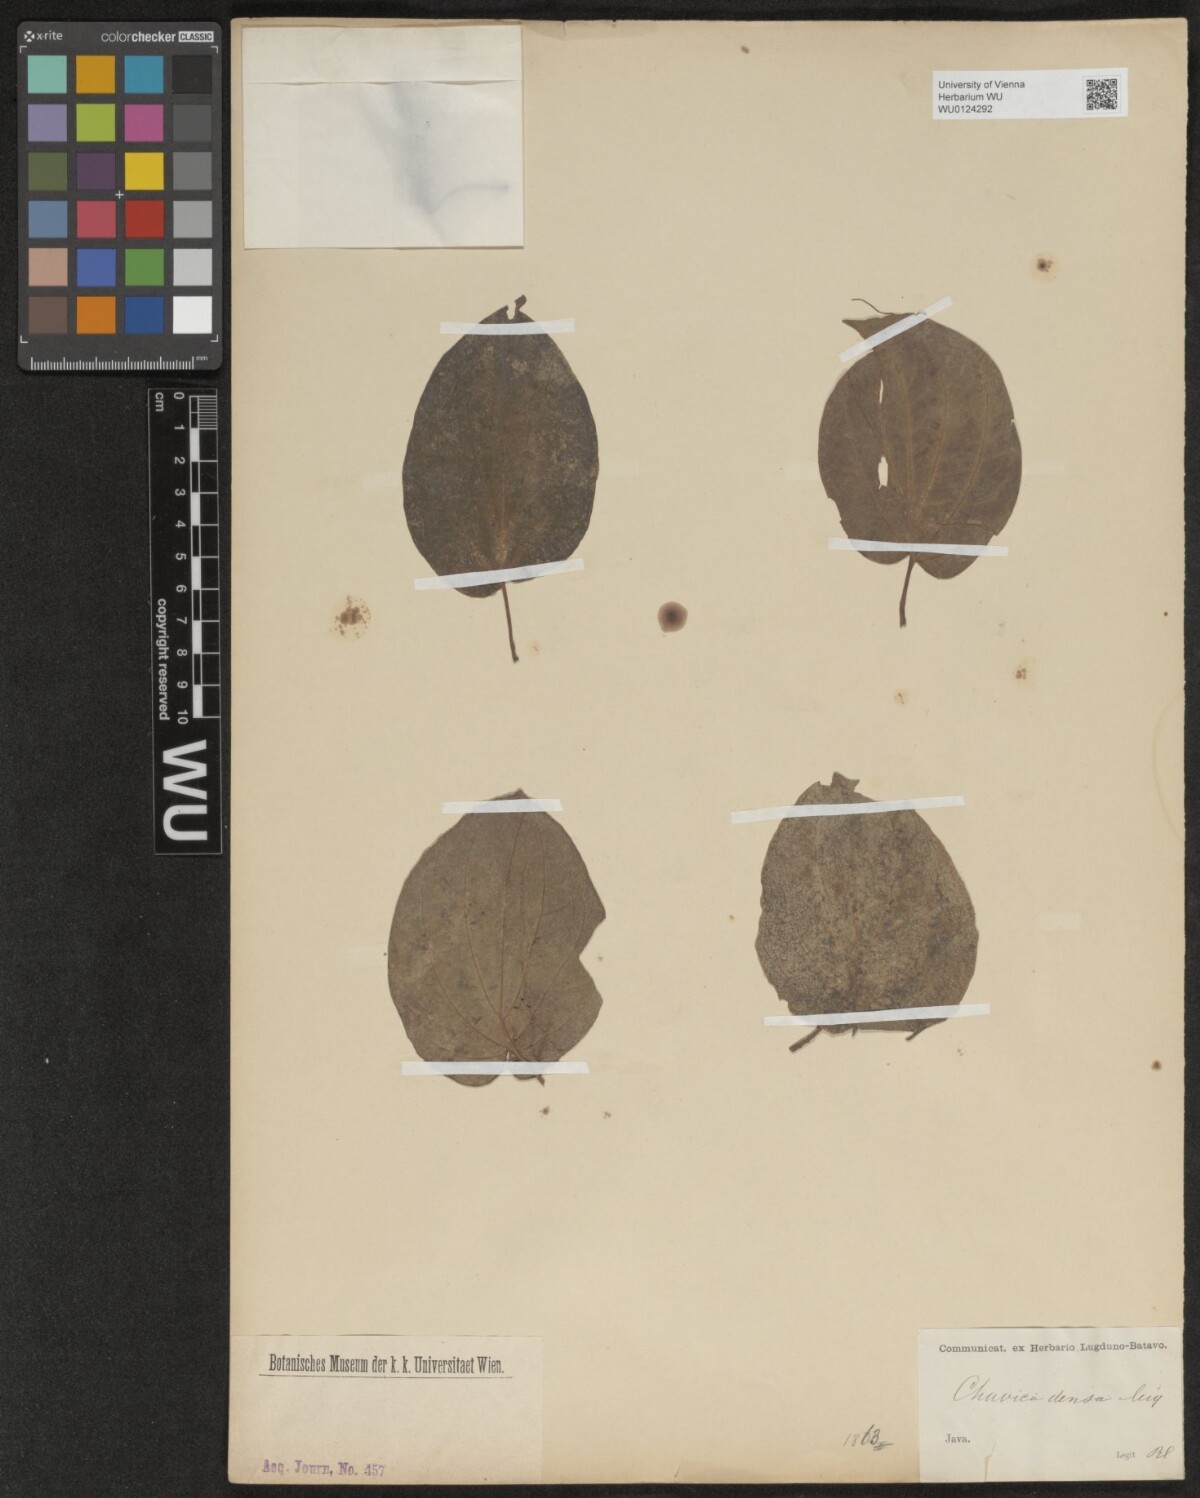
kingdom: Plantae
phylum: Tracheophyta
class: Magnoliopsida
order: Piperales
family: Piperaceae
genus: Piper
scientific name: Piper betle
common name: Betel pepper
